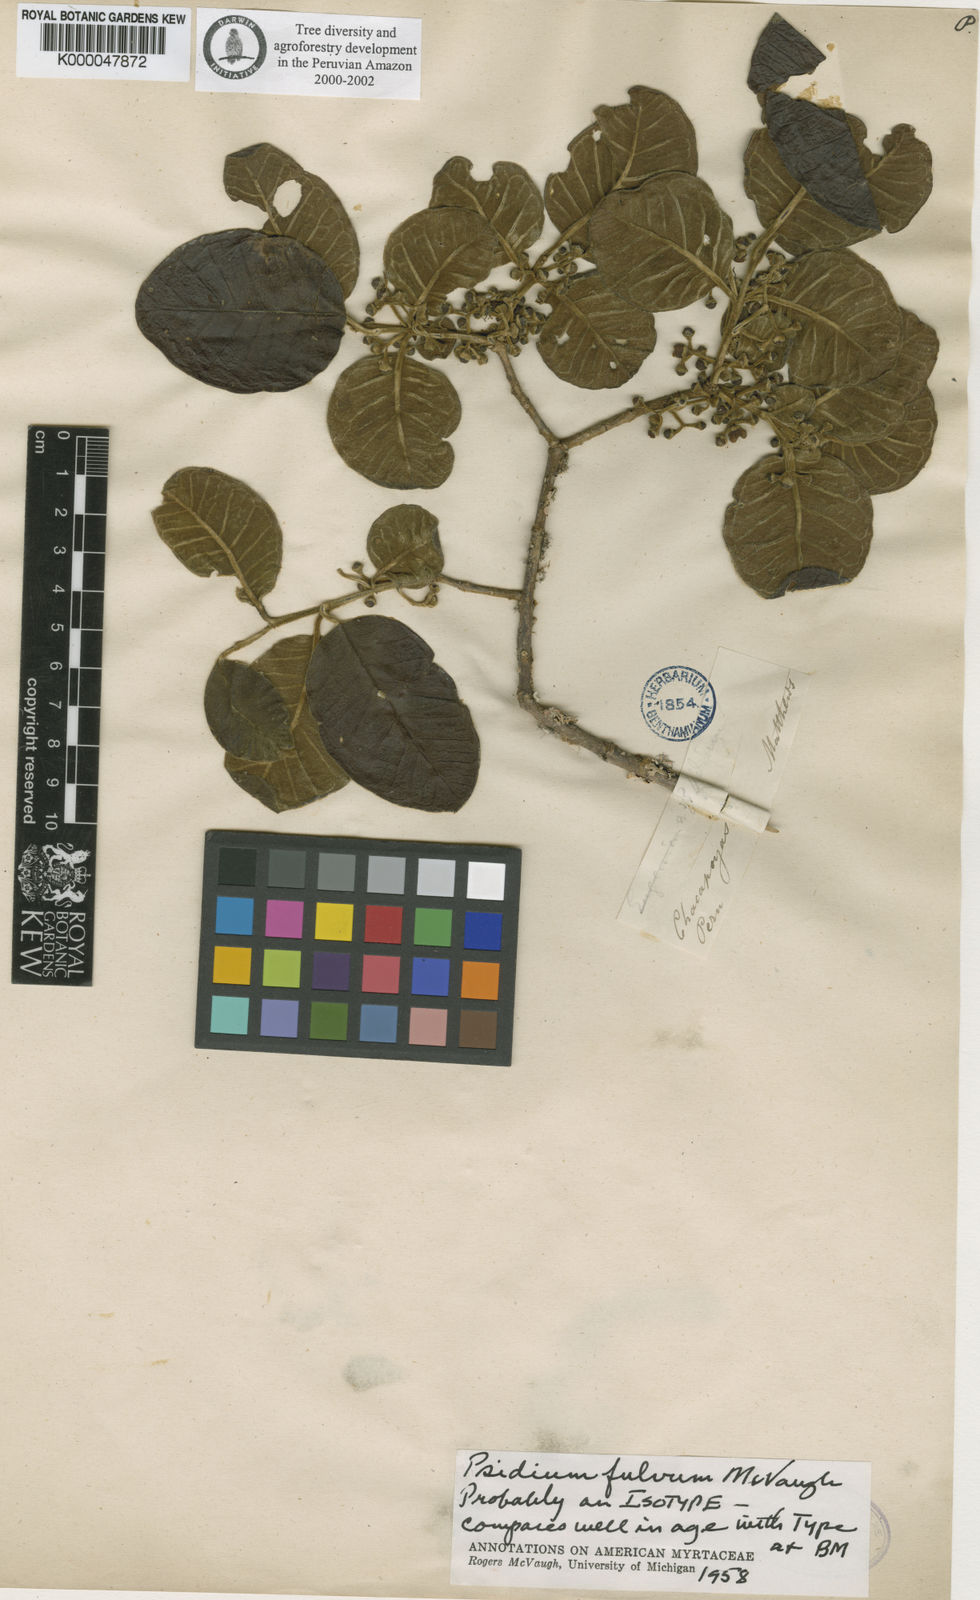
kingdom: Plantae
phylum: Tracheophyta
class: Magnoliopsida
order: Myrtales
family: Myrtaceae
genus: Psidium
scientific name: Psidium fulvum
